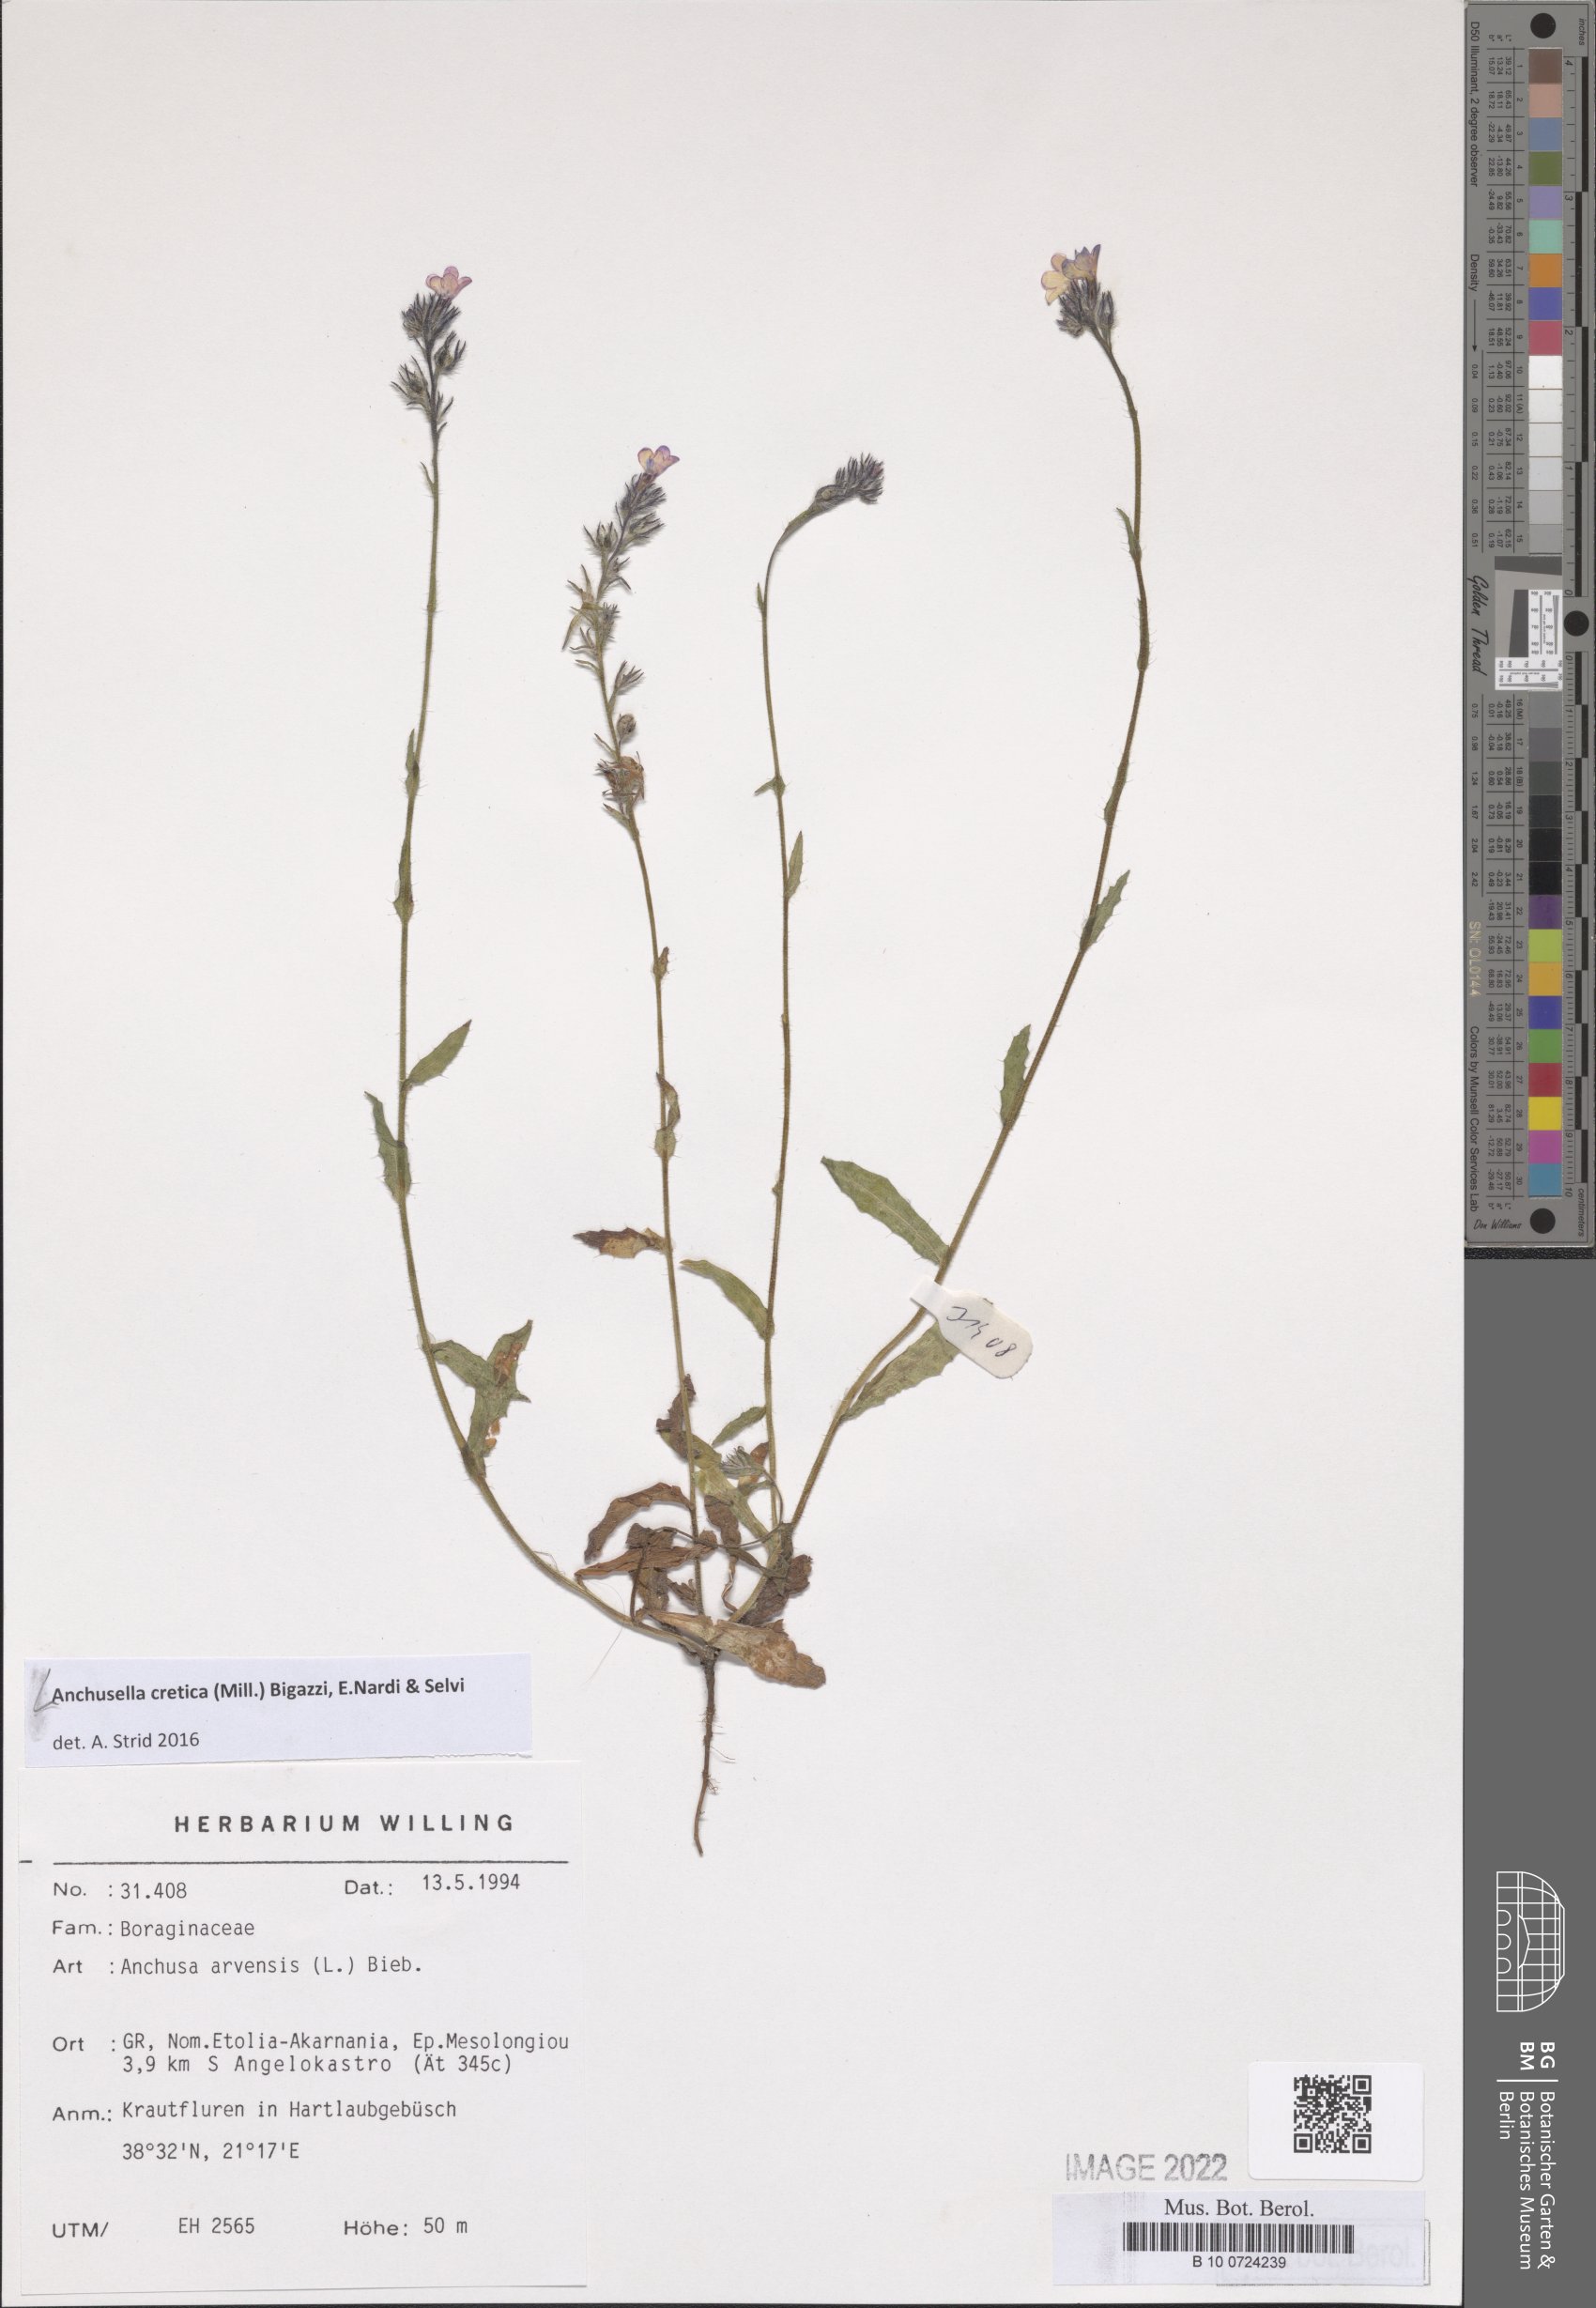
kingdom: Plantae
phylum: Tracheophyta
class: Magnoliopsida
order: Boraginales
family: Boraginaceae
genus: Anchusella
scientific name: Anchusella cretica
